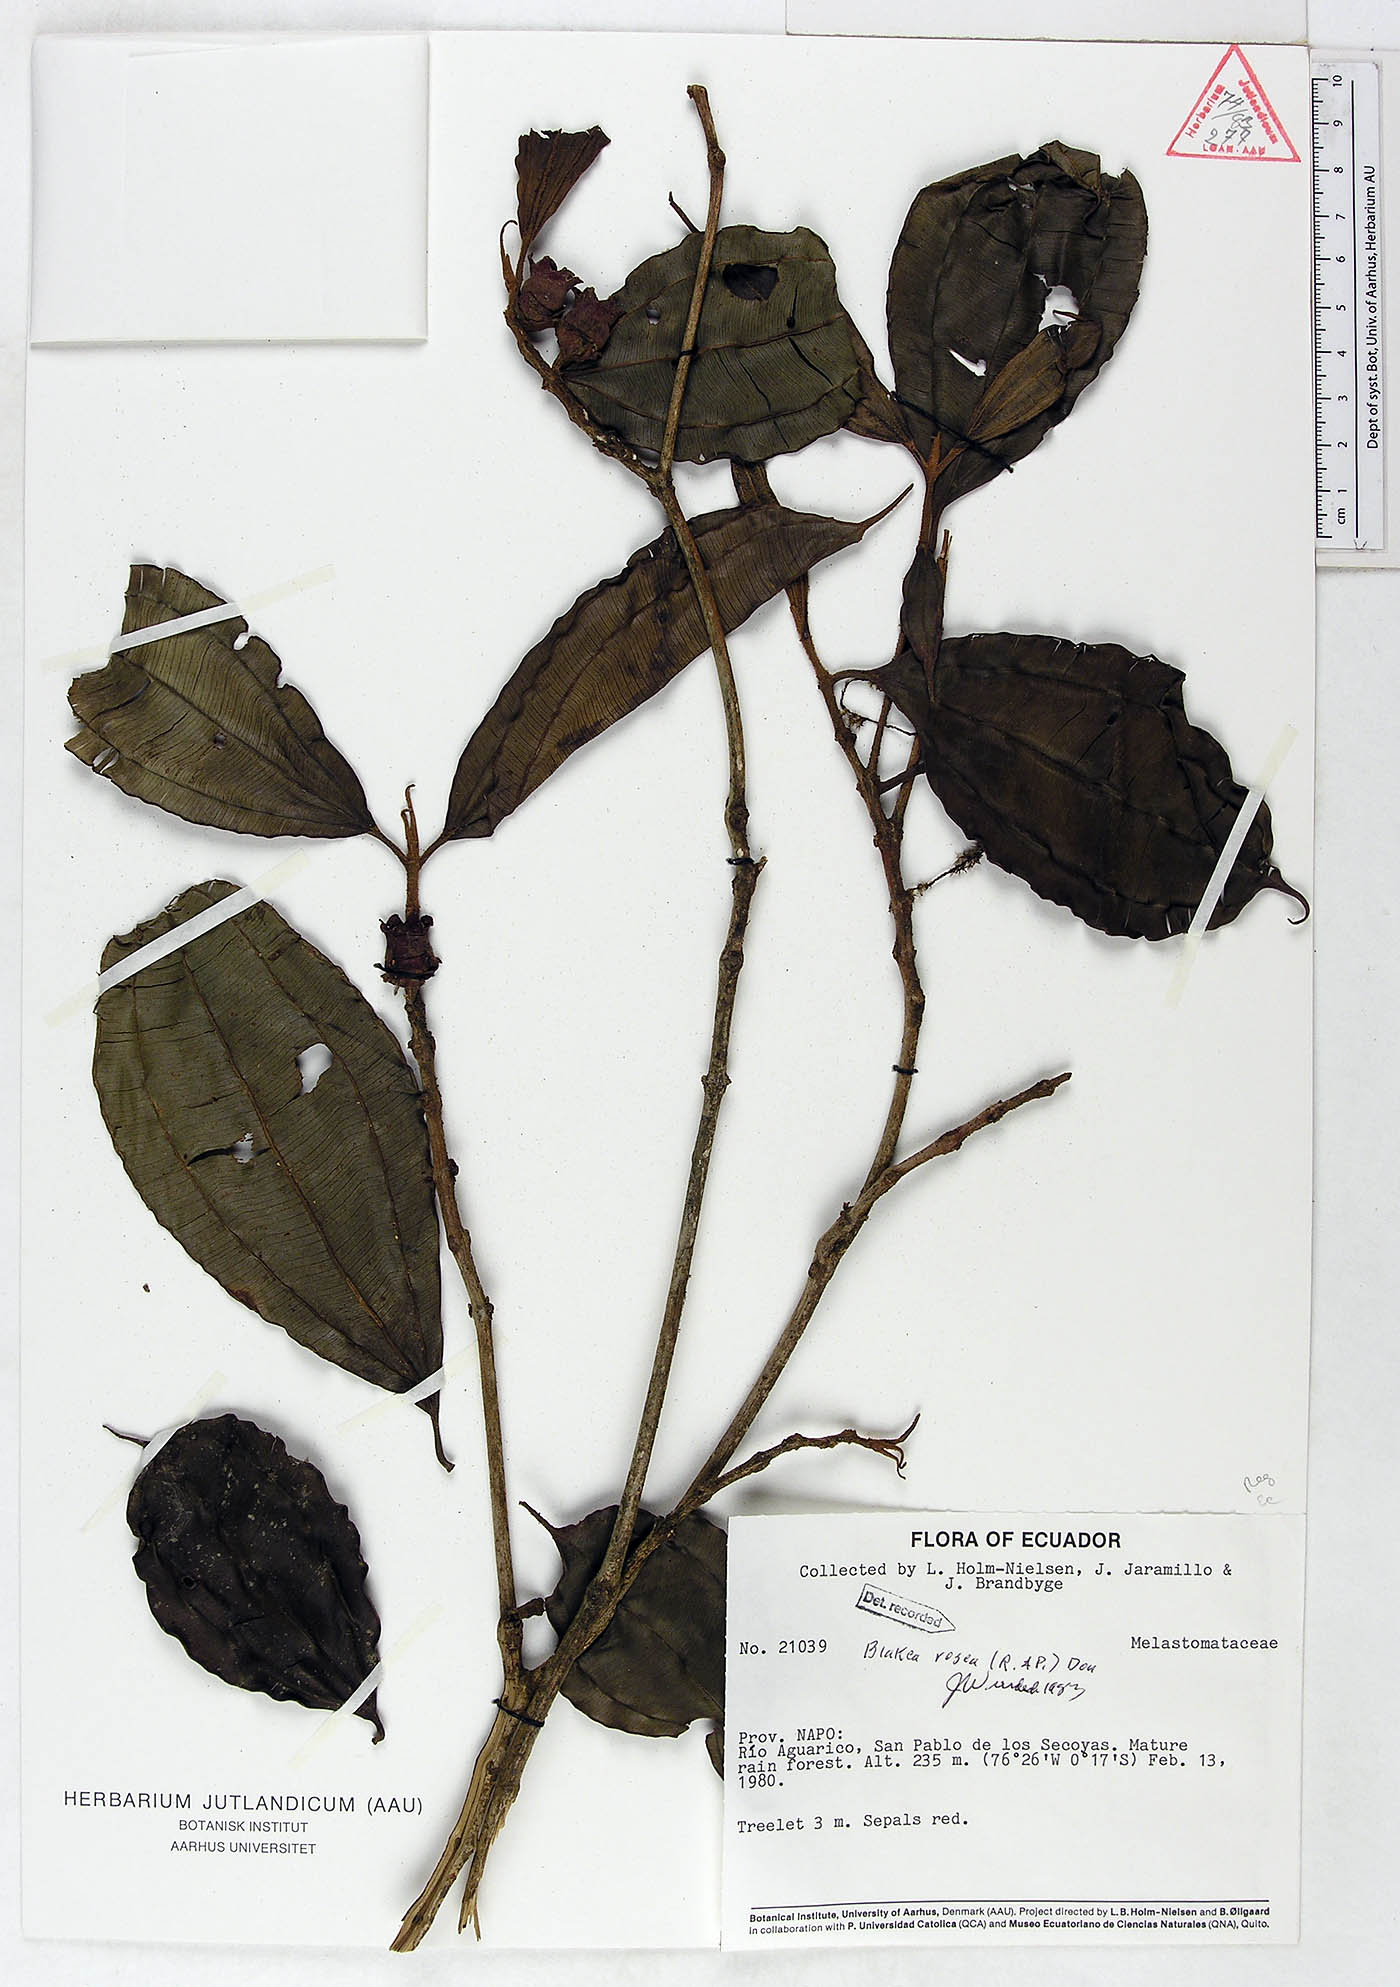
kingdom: Plantae
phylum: Tracheophyta
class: Magnoliopsida
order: Myrtales
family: Melastomataceae
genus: Blakea
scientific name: Blakea rosea
